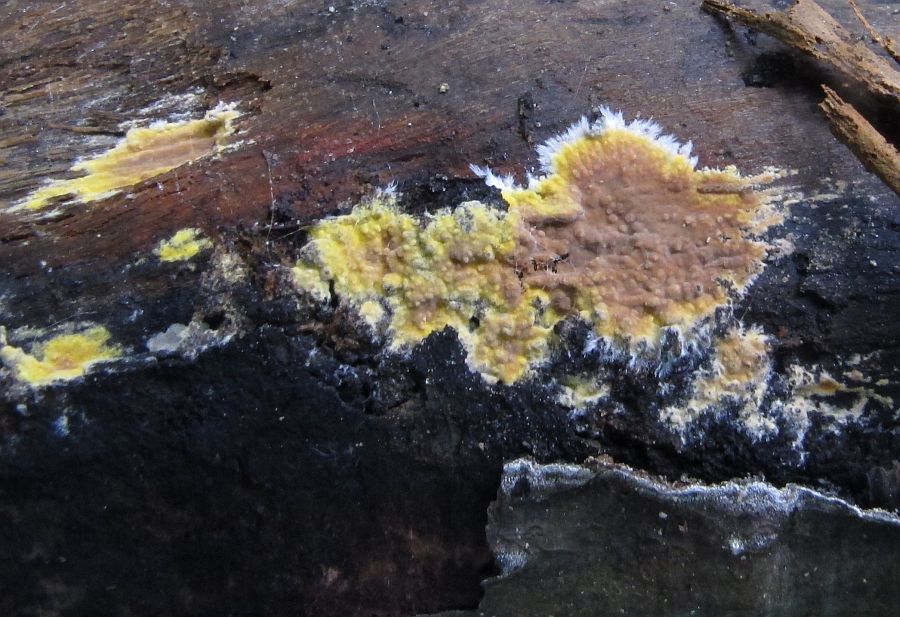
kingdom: Fungi
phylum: Basidiomycota
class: Agaricomycetes
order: Polyporales
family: Meruliaceae
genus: Phlebiodontia
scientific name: Phlebiodontia subochracea
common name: svovl-åresvamp
